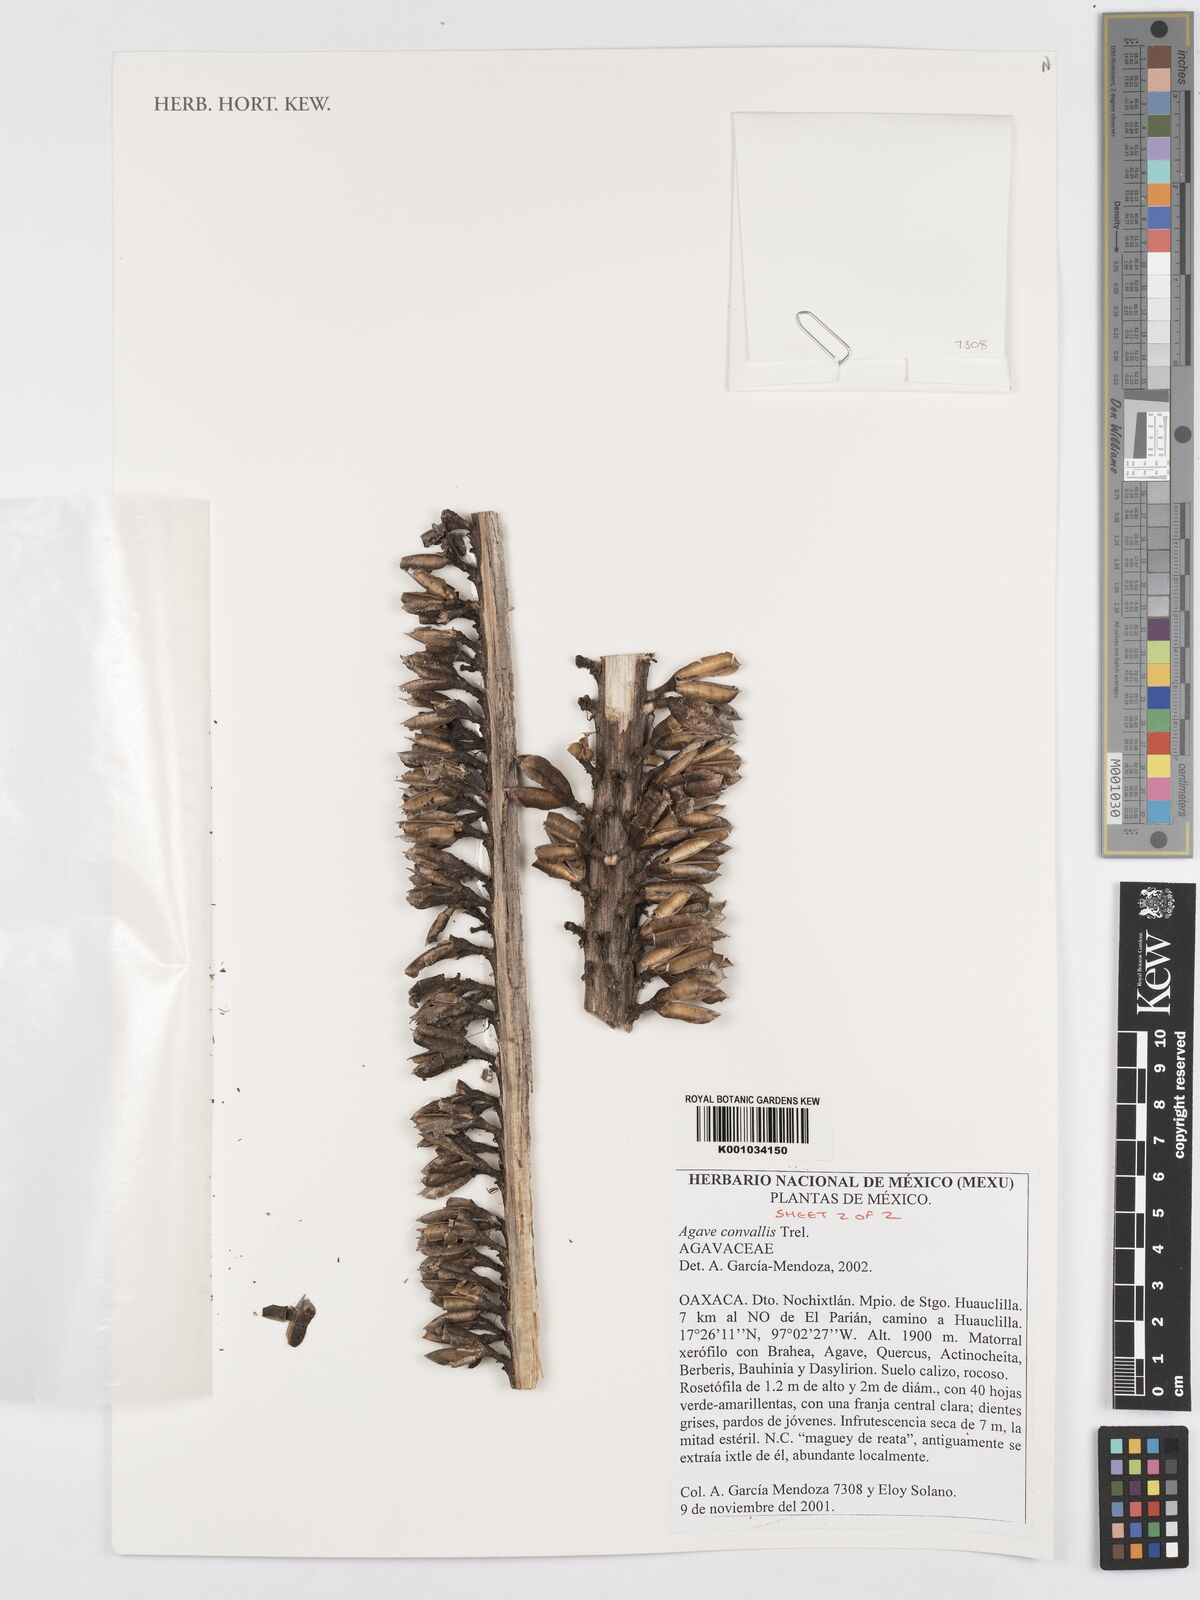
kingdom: Plantae
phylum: Tracheophyta
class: Liliopsida
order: Asparagales
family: Asparagaceae
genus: Agave
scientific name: Agave convallis
